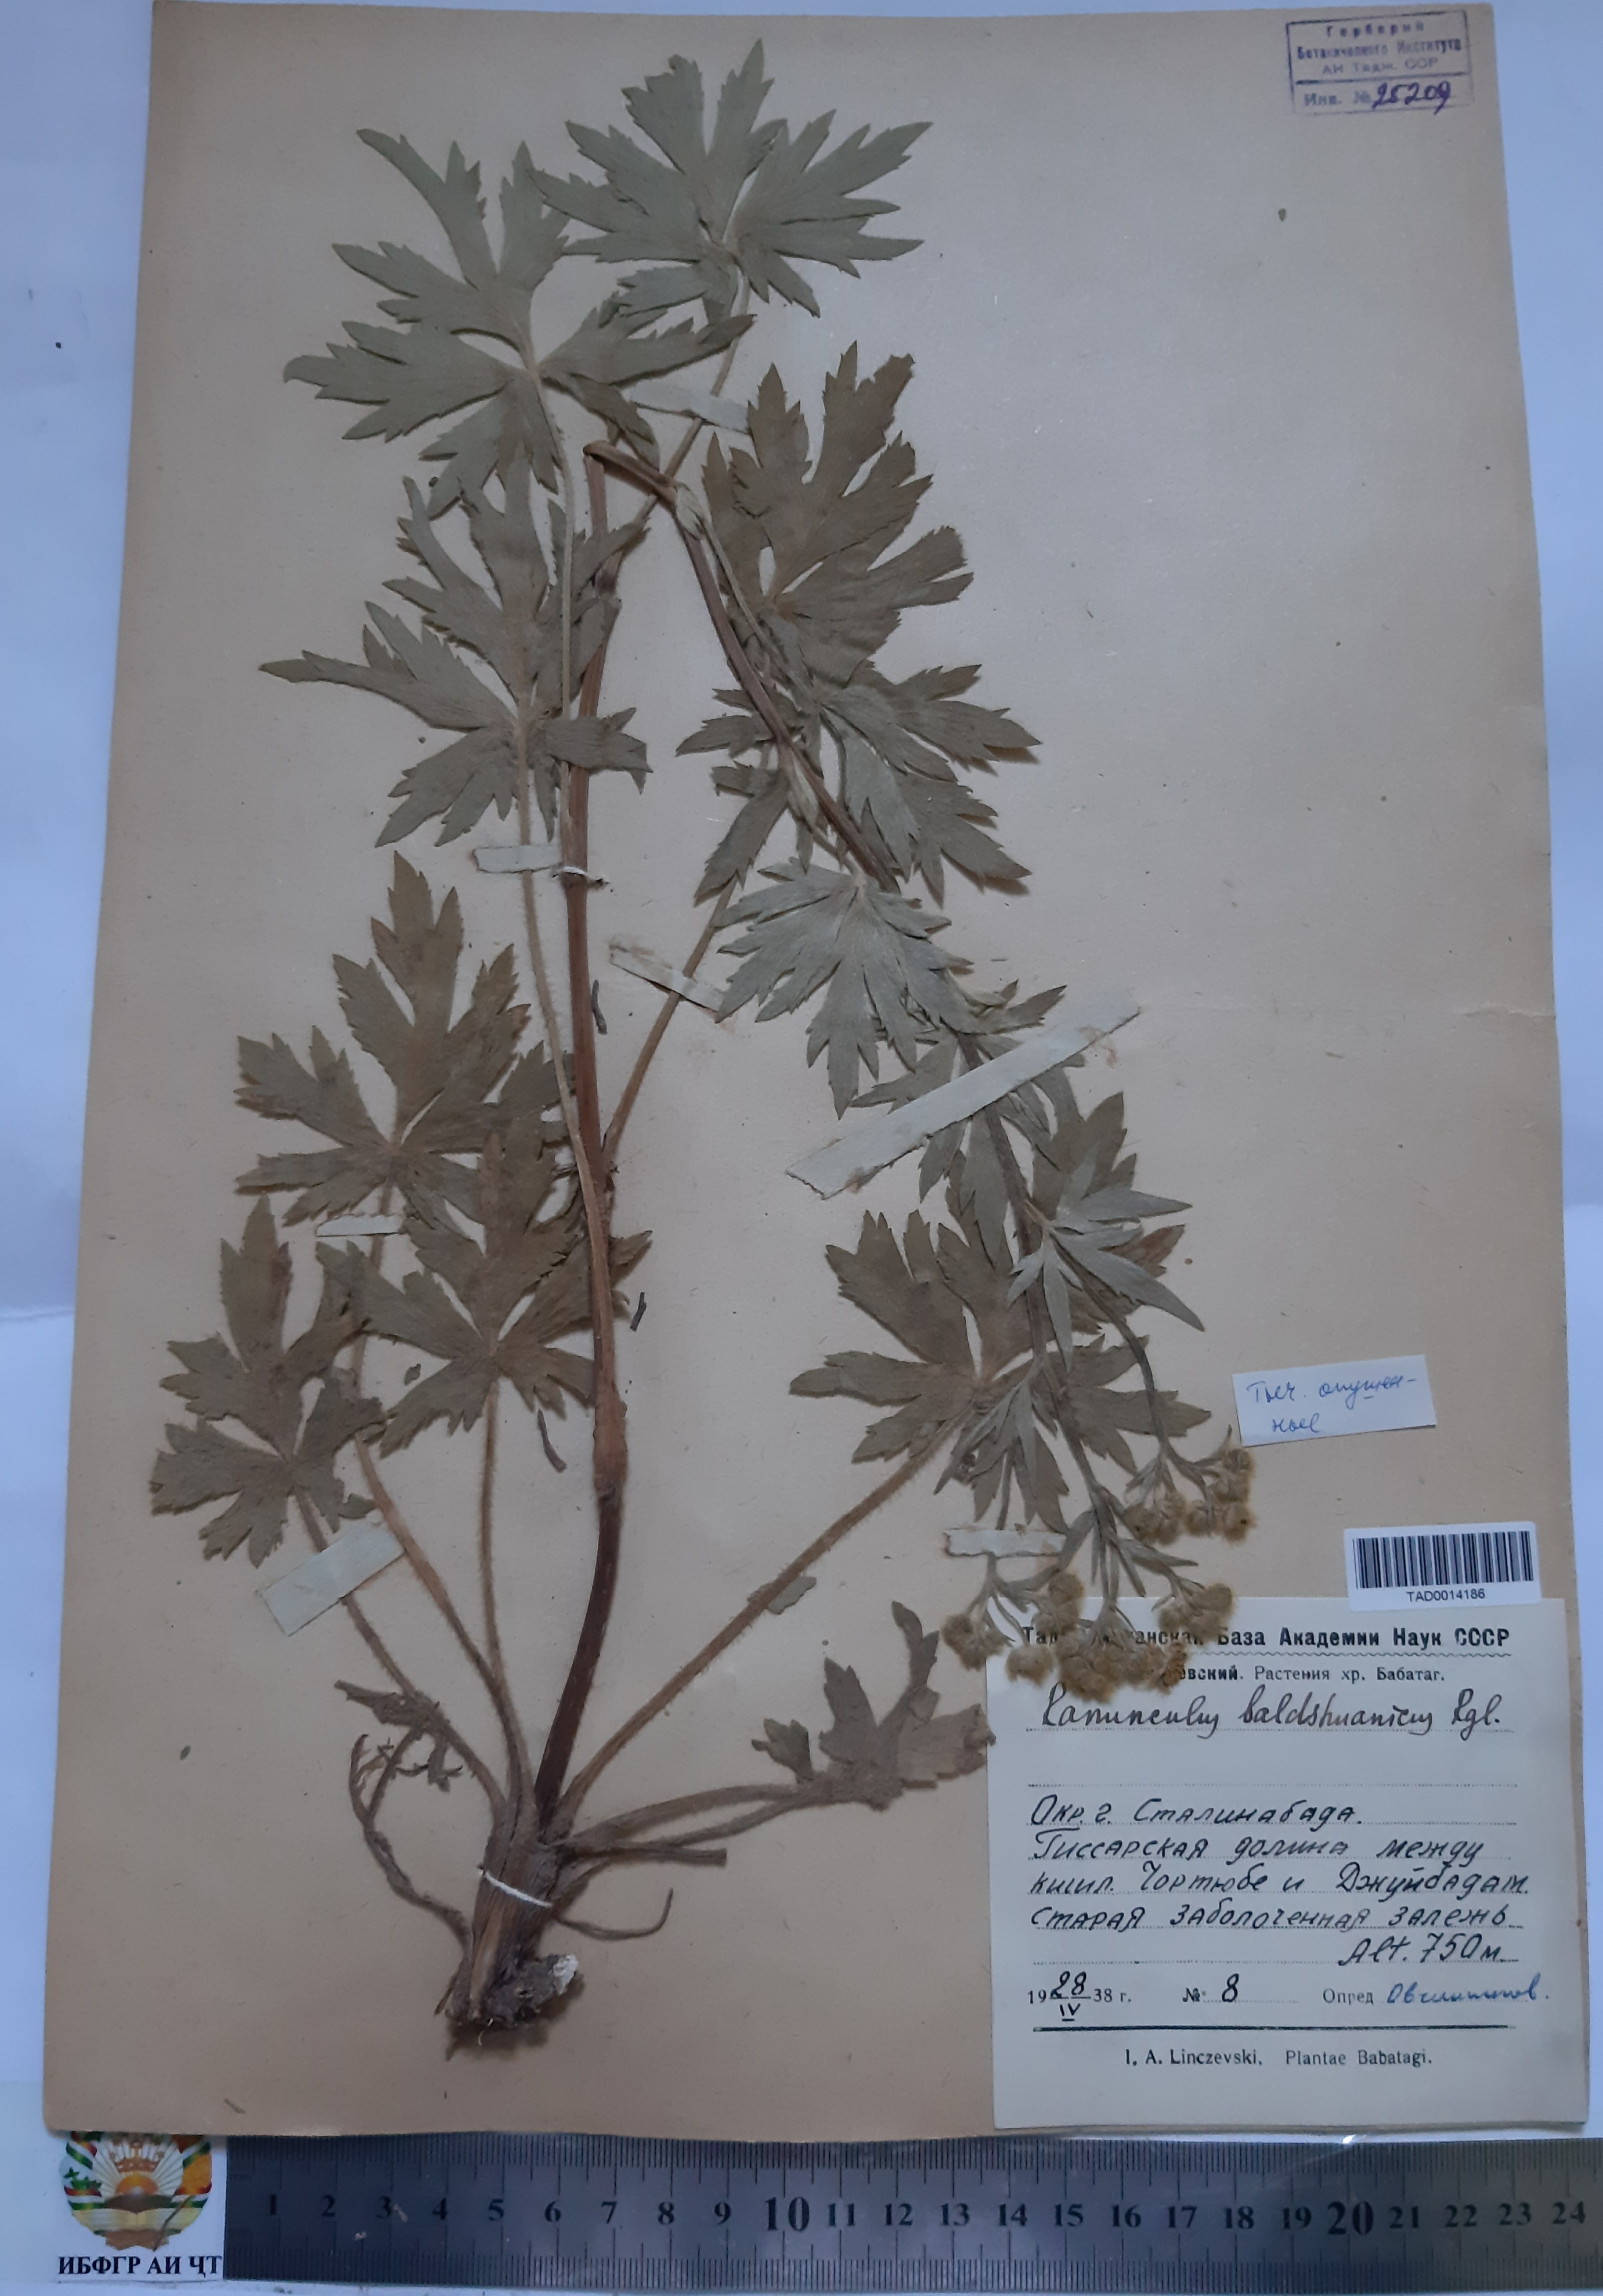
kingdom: Plantae
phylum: Tracheophyta
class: Magnoliopsida
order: Ranunculales
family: Ranunculaceae
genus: Ranunculus
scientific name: Ranunculus baldshuanicus
